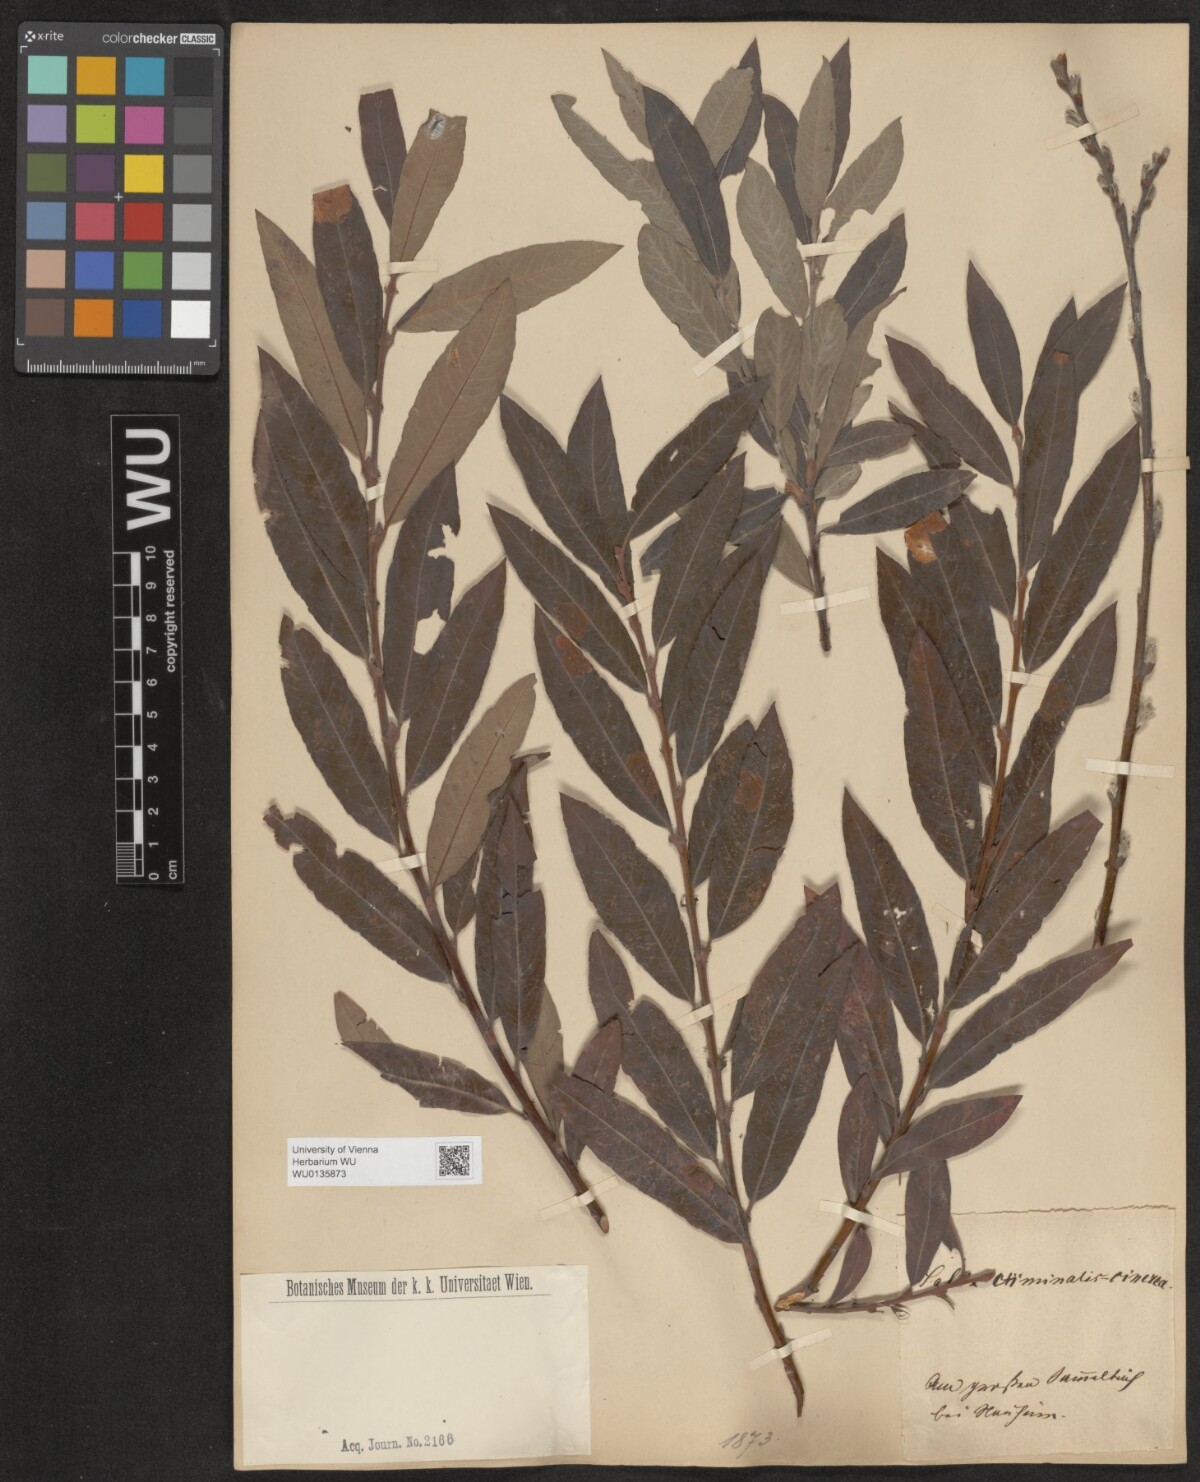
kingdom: Plantae
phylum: Tracheophyta
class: Magnoliopsida
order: Malpighiales
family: Salicaceae
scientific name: Salicaceae
